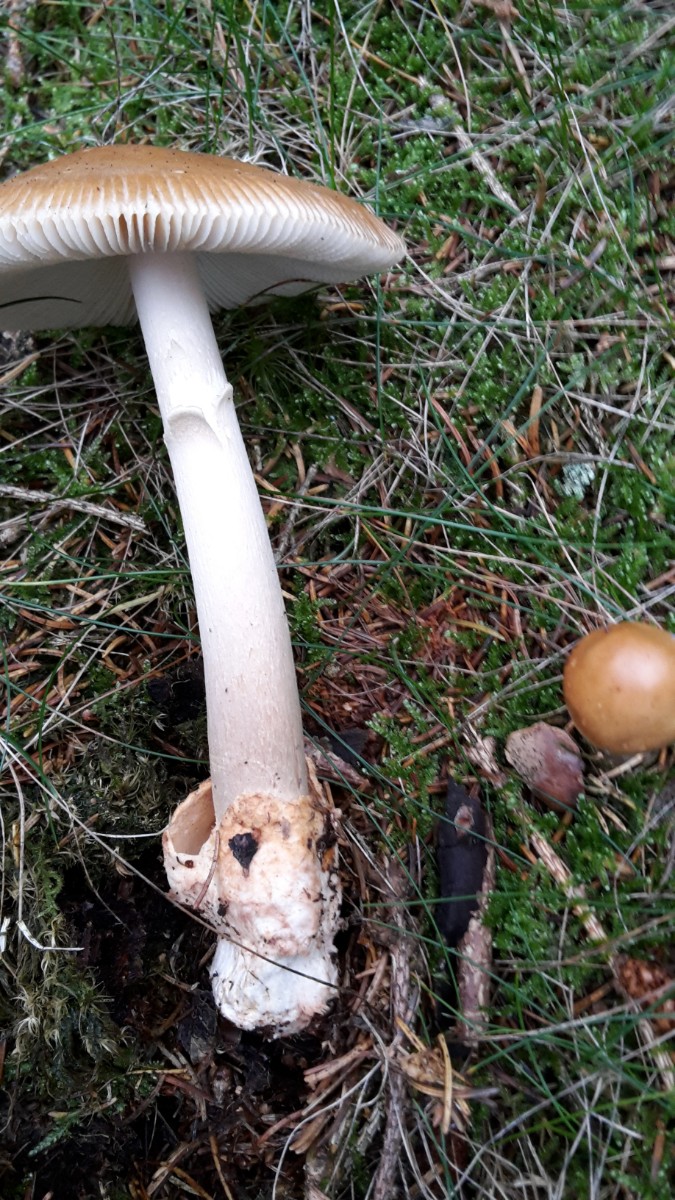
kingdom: Fungi
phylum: Basidiomycota
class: Agaricomycetes
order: Agaricales
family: Amanitaceae
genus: Amanita
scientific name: Amanita fulva
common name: brun kam-fluesvamp
